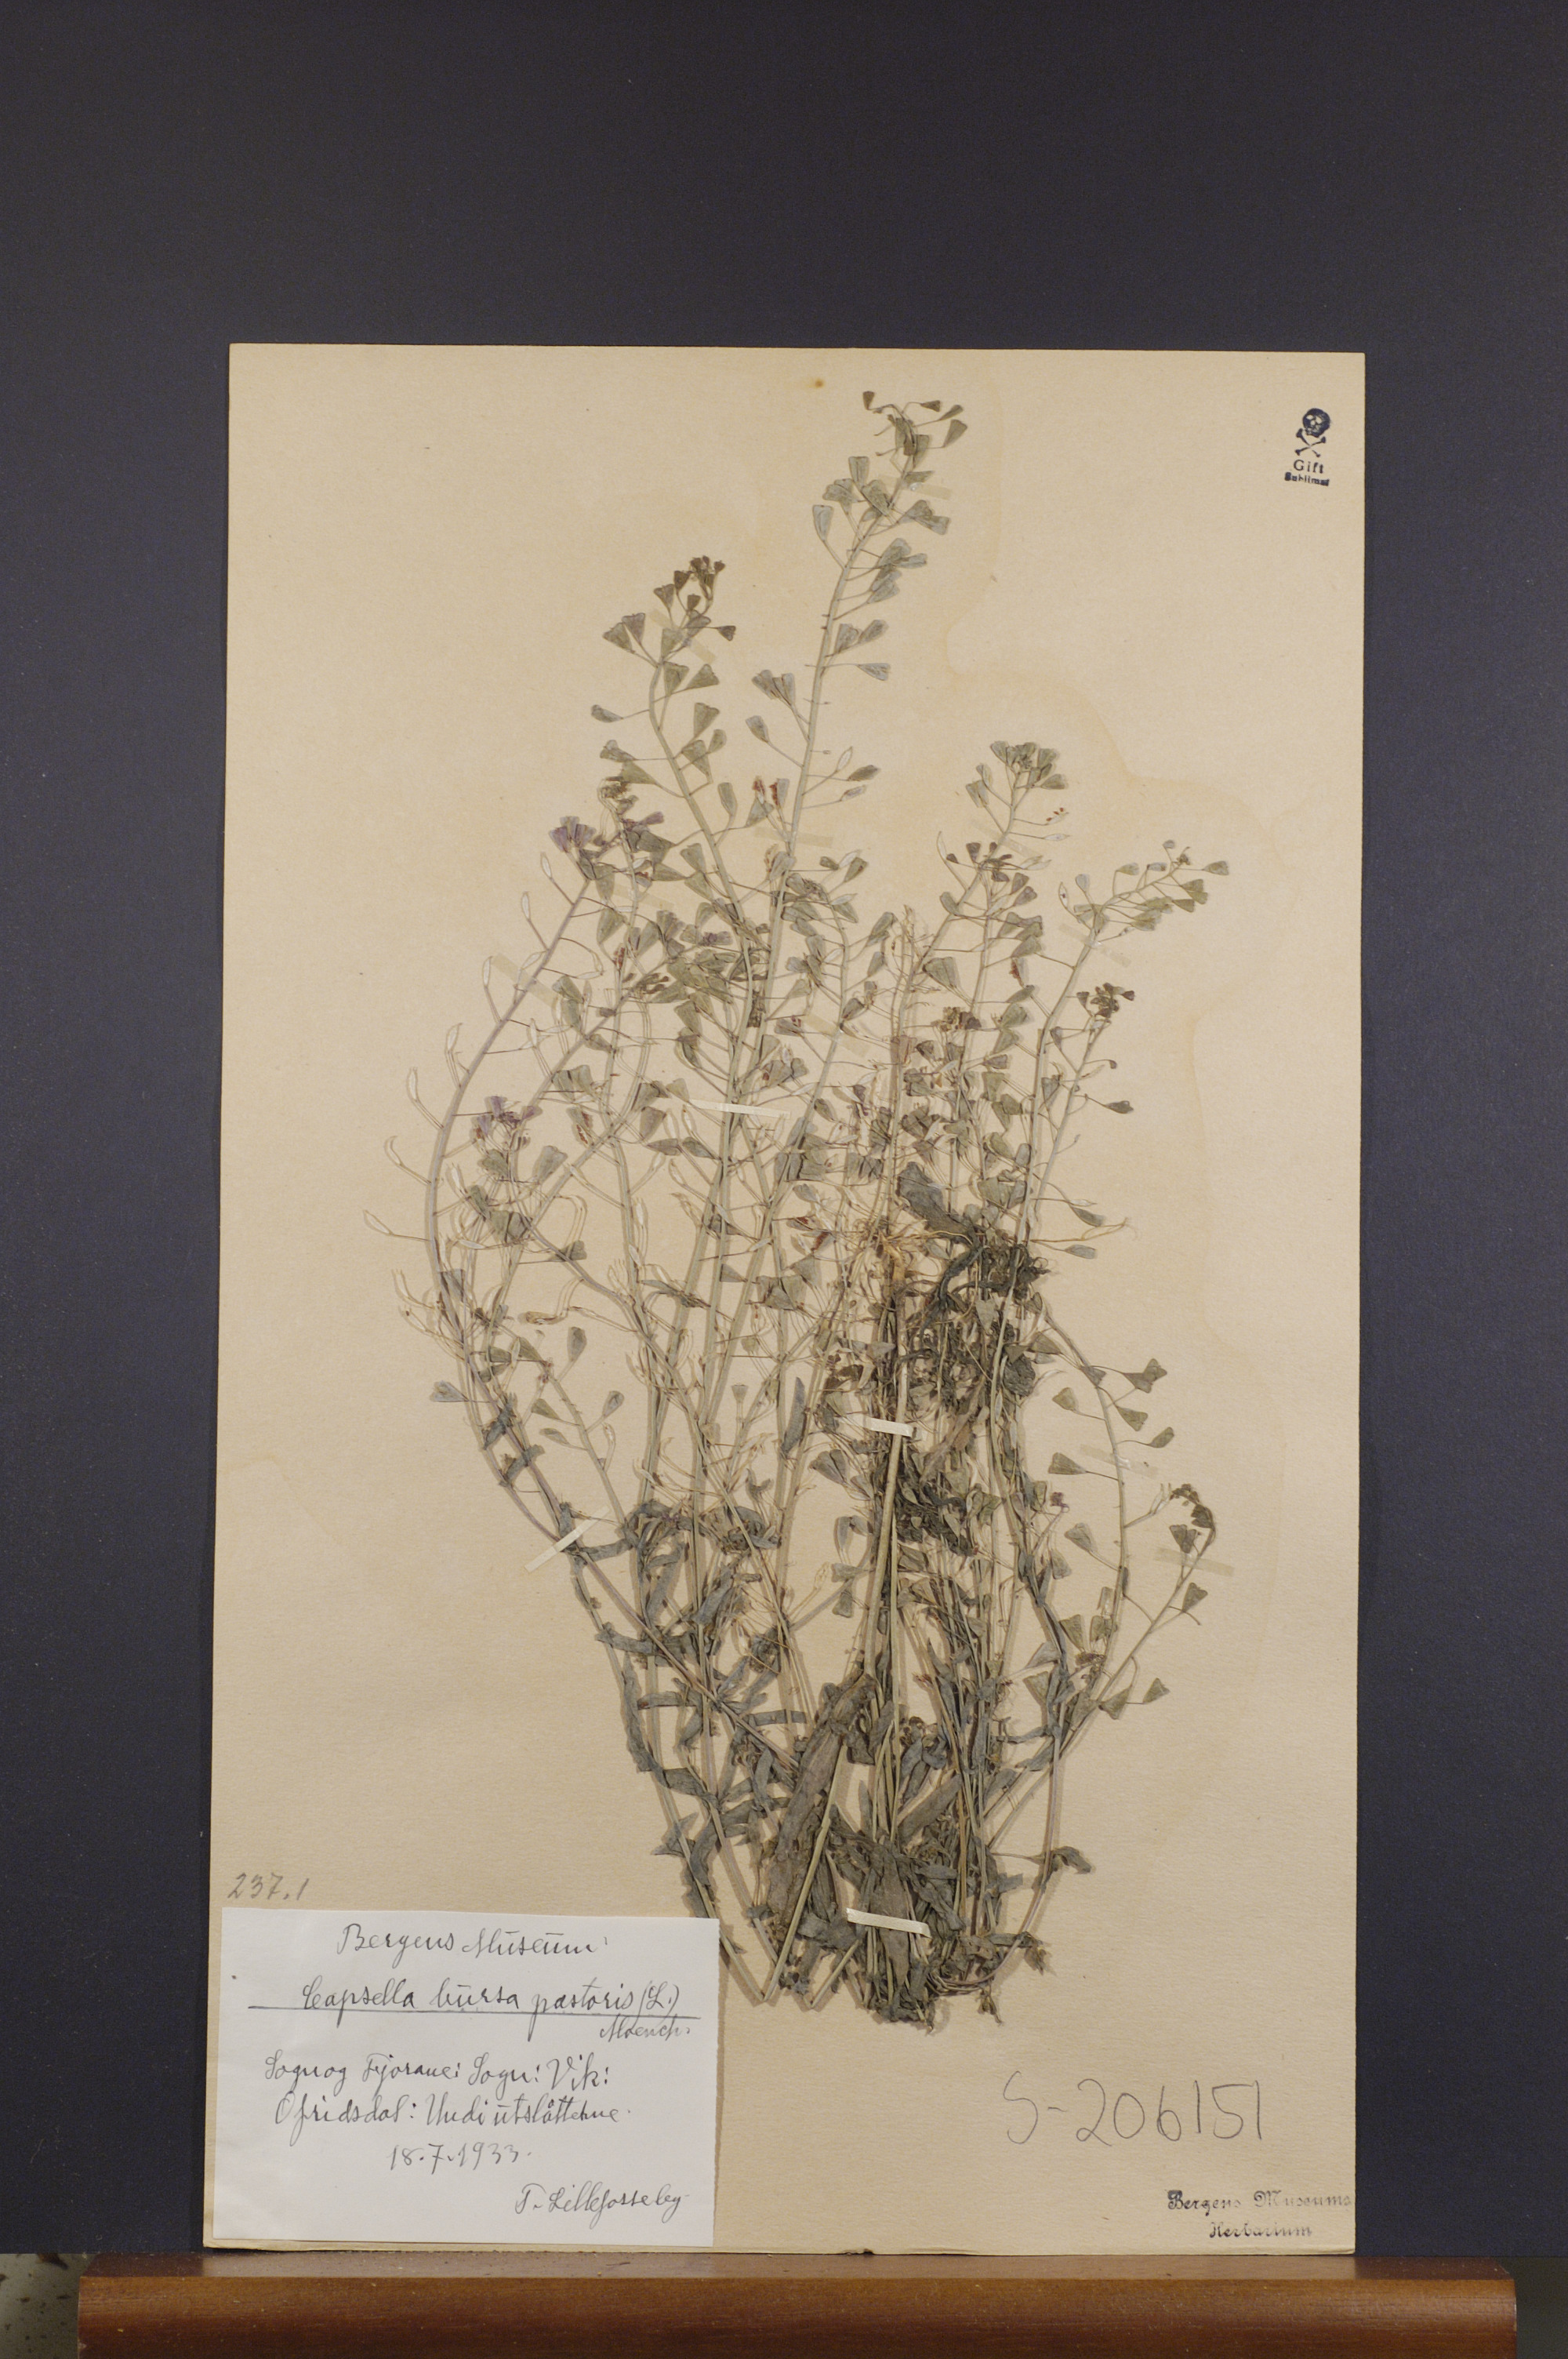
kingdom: Plantae
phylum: Tracheophyta
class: Magnoliopsida
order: Brassicales
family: Brassicaceae
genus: Capsella
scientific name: Capsella bursa-pastoris
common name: Shepherd's purse
